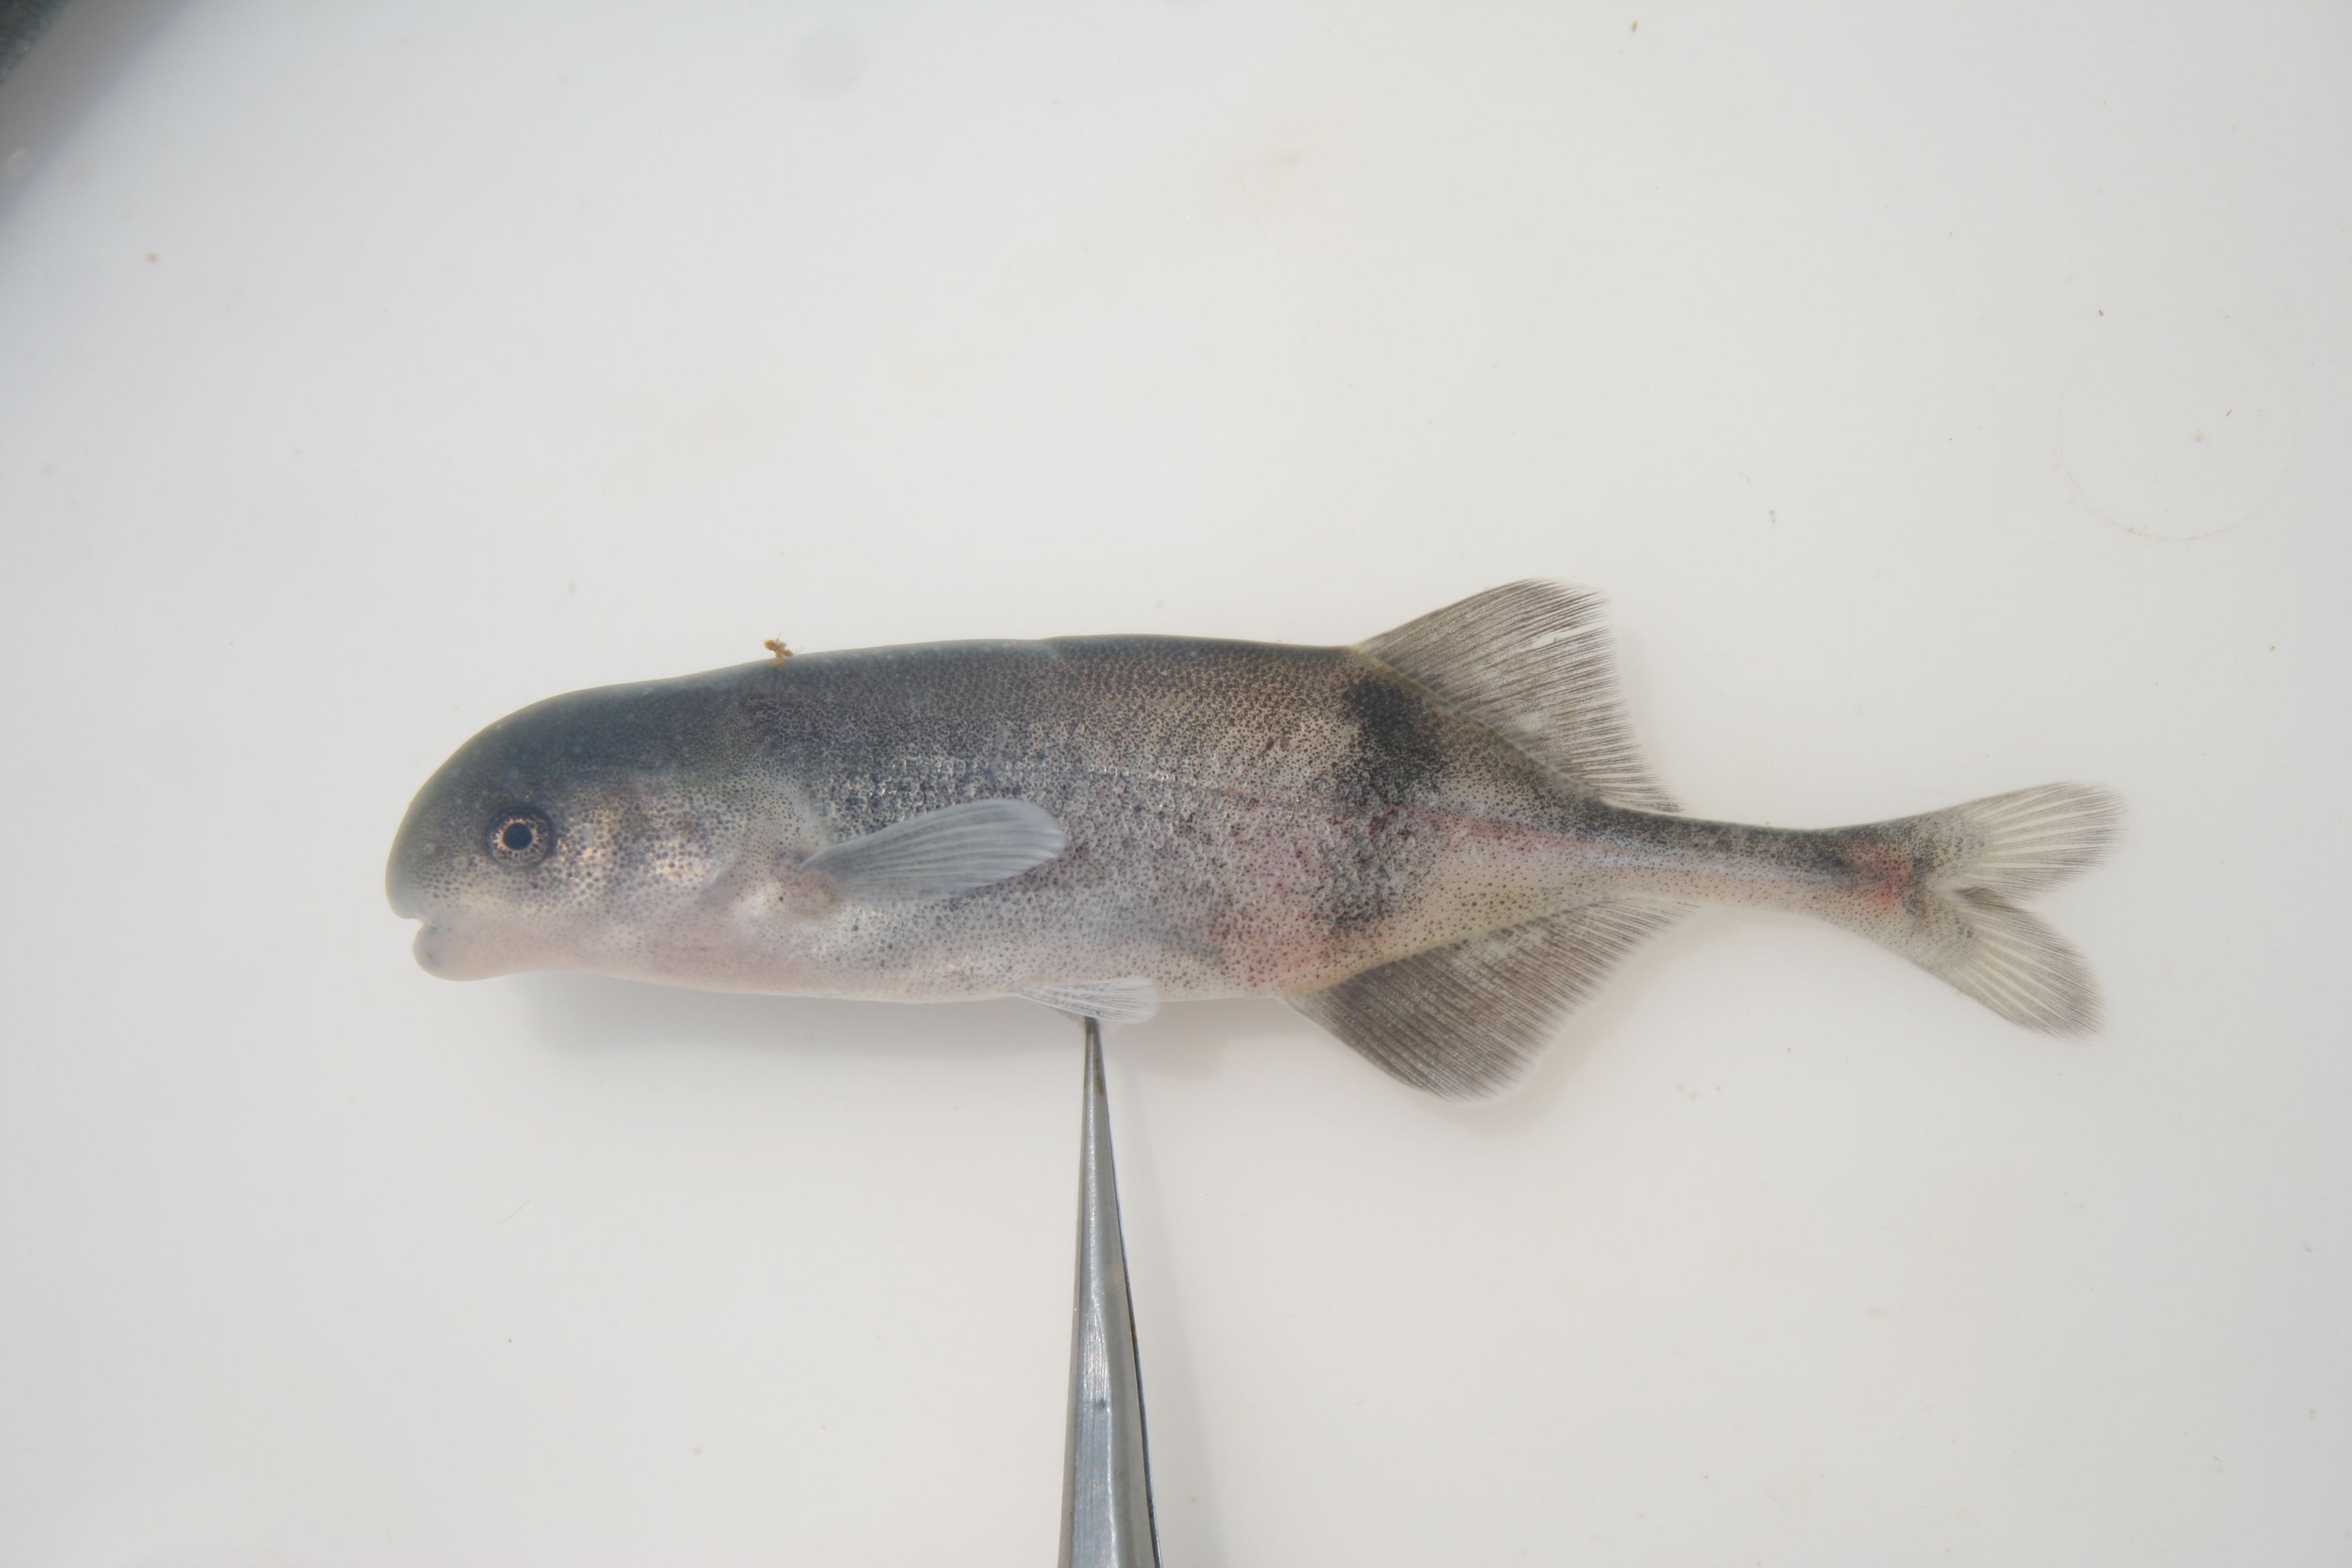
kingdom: Animalia
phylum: Chordata
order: Osteoglossiformes
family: Mormyridae
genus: Hippopotamyrus
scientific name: Hippopotamyrus
